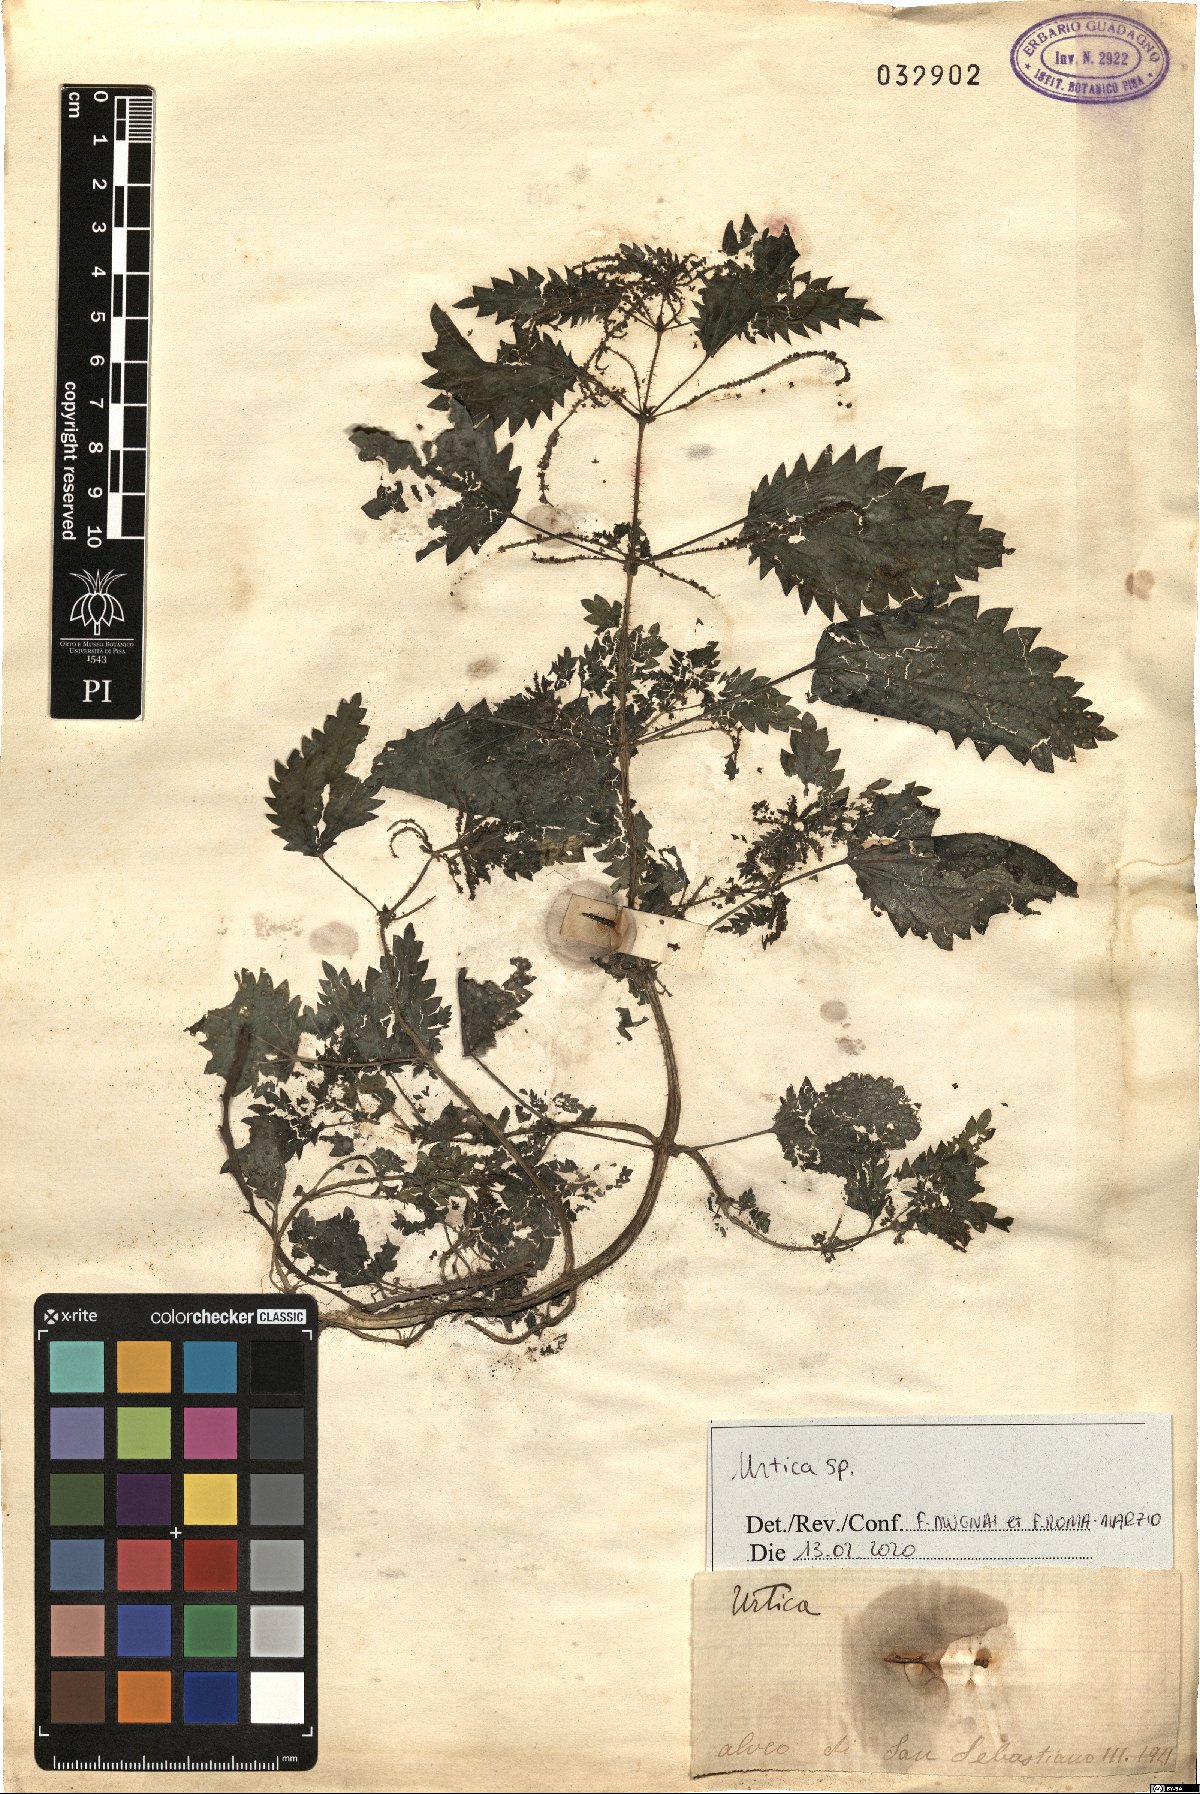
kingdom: Plantae
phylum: Tracheophyta
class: Magnoliopsida
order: Rosales
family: Urticaceae
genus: Urtica
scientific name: Urtica
